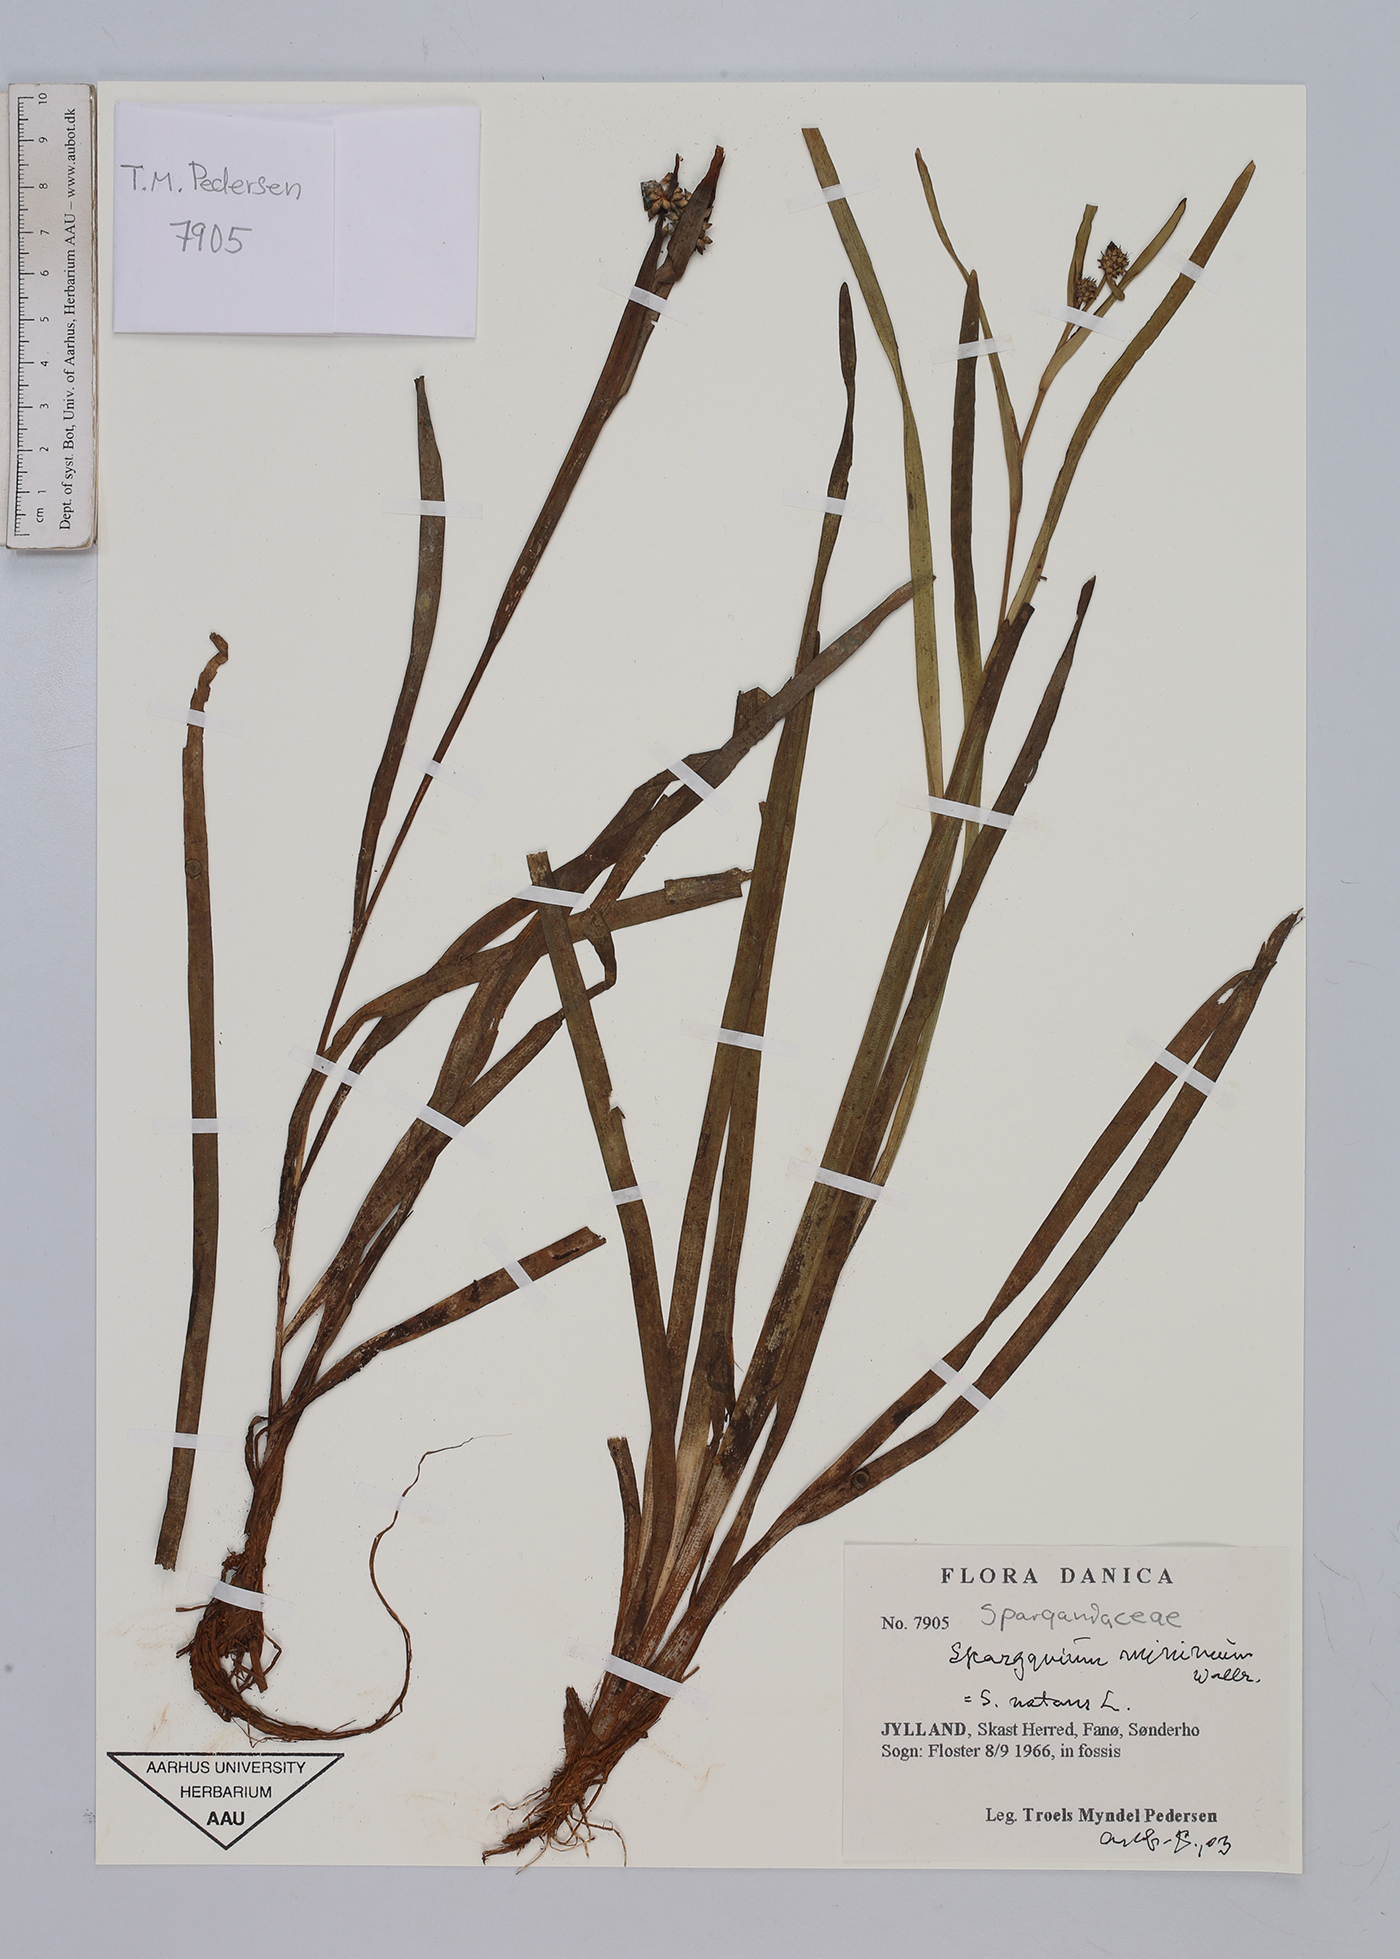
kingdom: Plantae
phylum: Tracheophyta
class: Liliopsida
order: Poales
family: Typhaceae
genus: Sparganium
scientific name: Sparganium natans
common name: Least bur-reed
